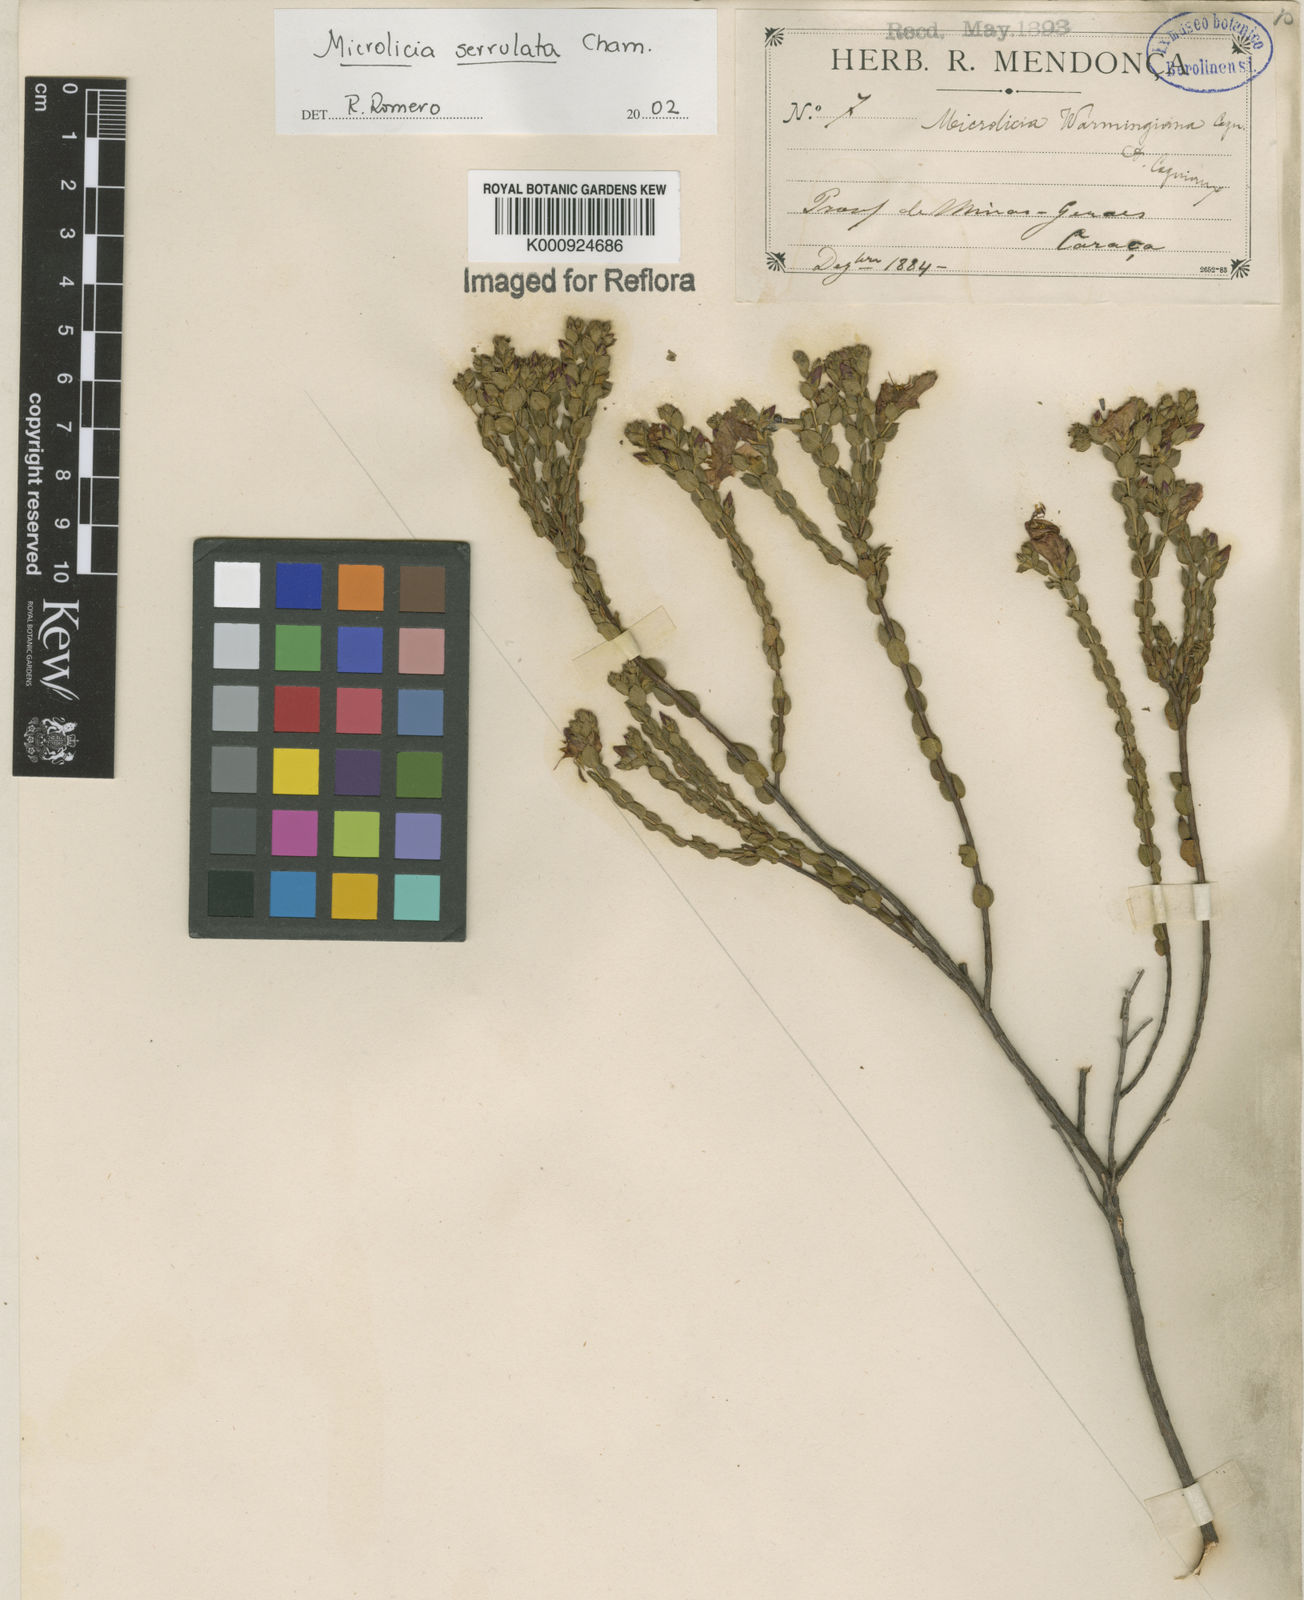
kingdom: Plantae
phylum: Tracheophyta
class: Magnoliopsida
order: Myrtales
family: Melastomataceae
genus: Microlicia
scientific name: Microlicia serrulata
